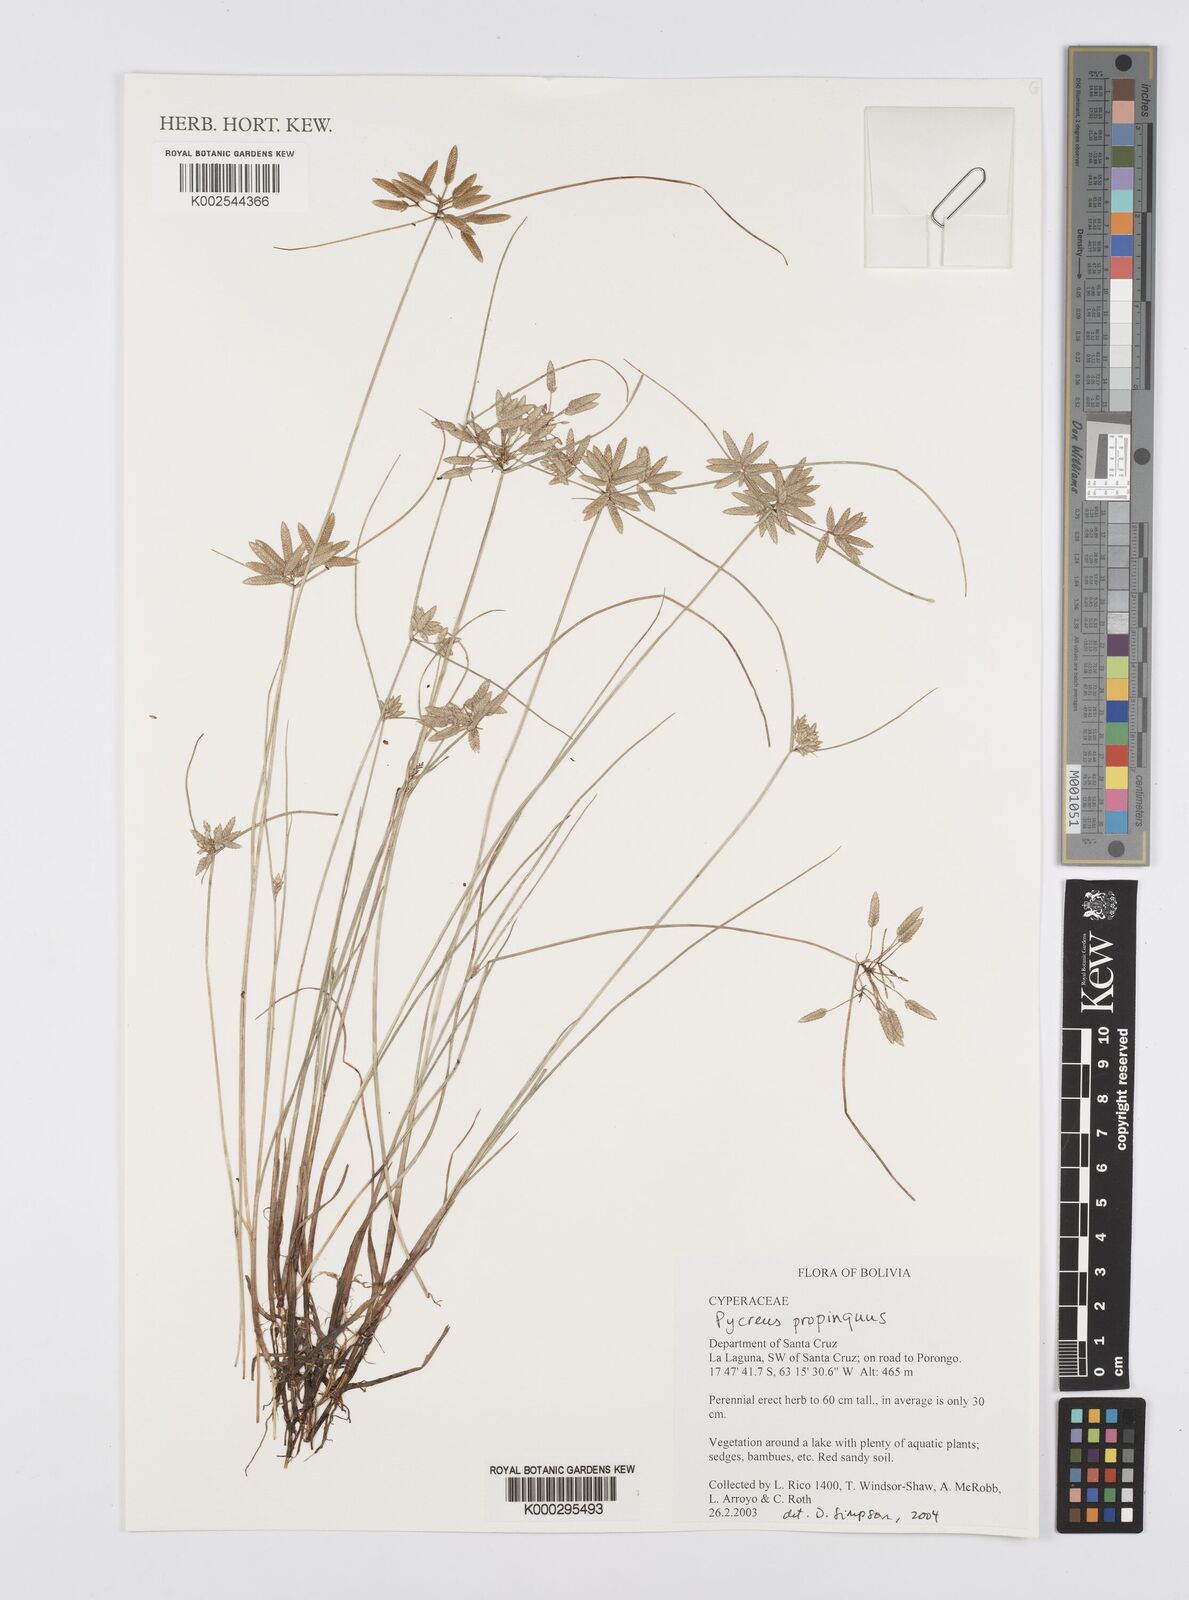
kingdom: Plantae
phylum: Tracheophyta
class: Liliopsida
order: Poales
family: Cyperaceae
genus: Cyperus
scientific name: Cyperus
